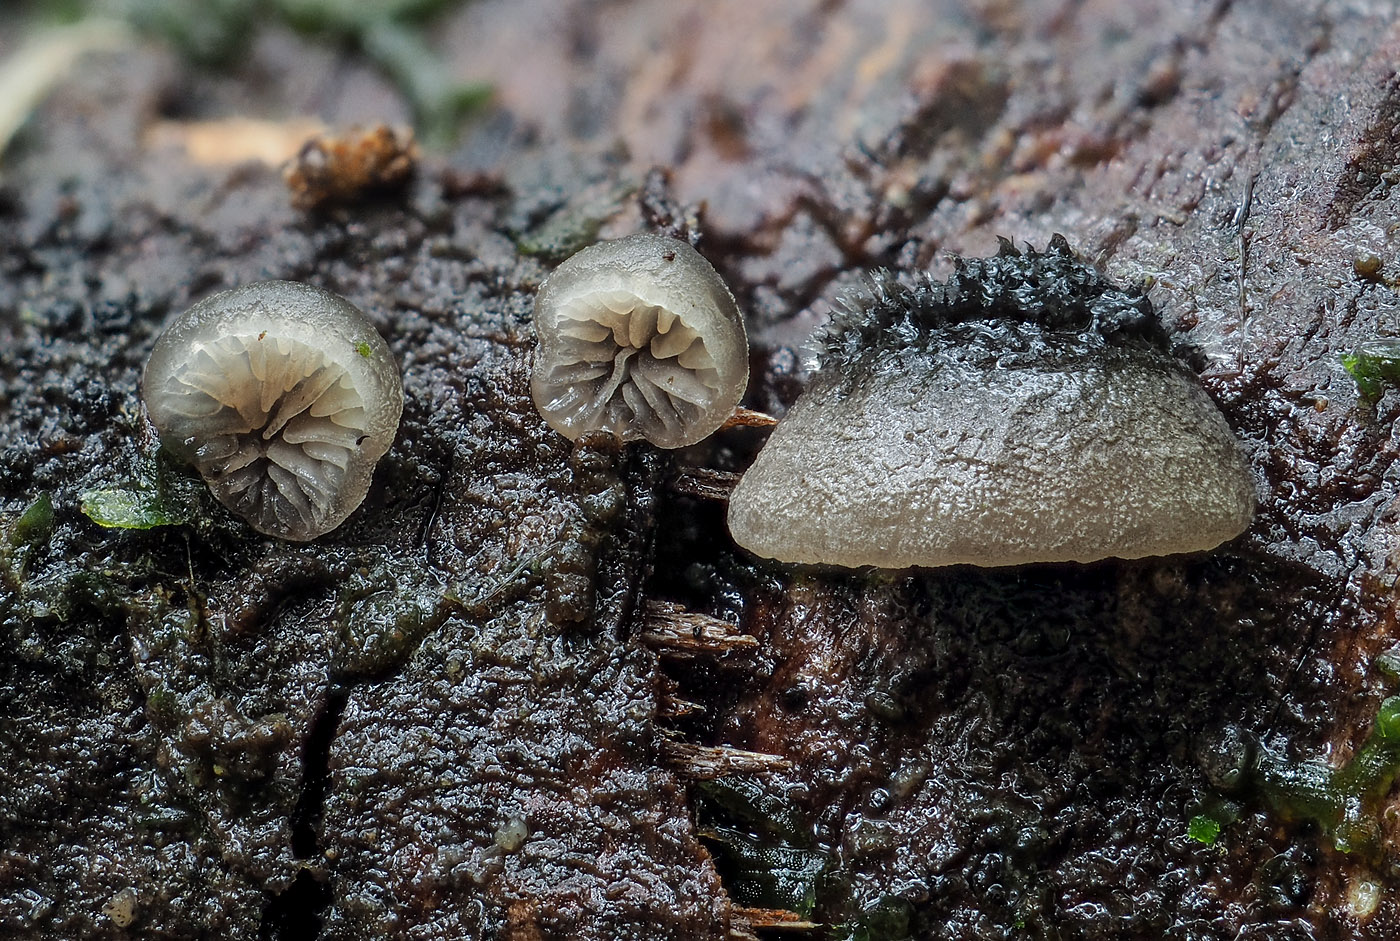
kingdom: Fungi
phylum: Basidiomycota
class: Agaricomycetes
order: Agaricales
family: Pleurotaceae
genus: Resupinatus
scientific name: Resupinatus trichotis
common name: mørkfiltet barkhat
